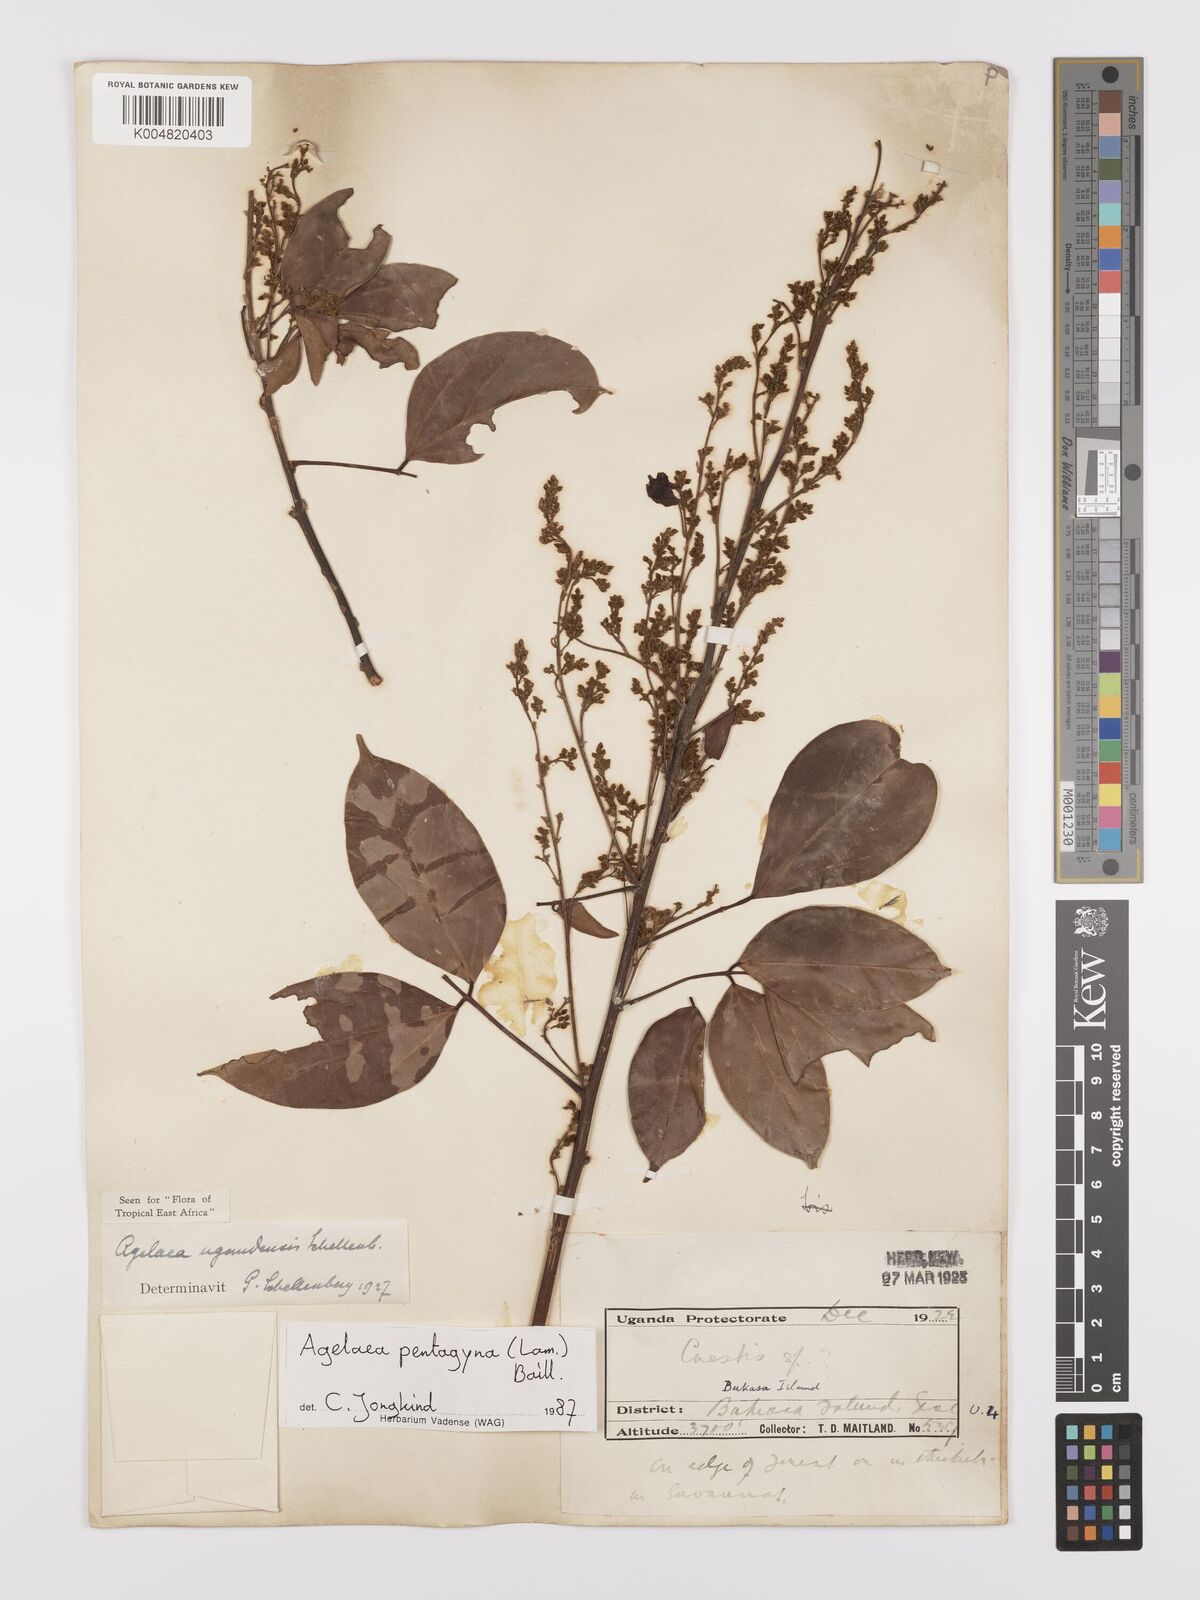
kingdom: Plantae
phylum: Tracheophyta
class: Magnoliopsida
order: Oxalidales
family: Connaraceae
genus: Agelaea
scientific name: Agelaea pentagyna
